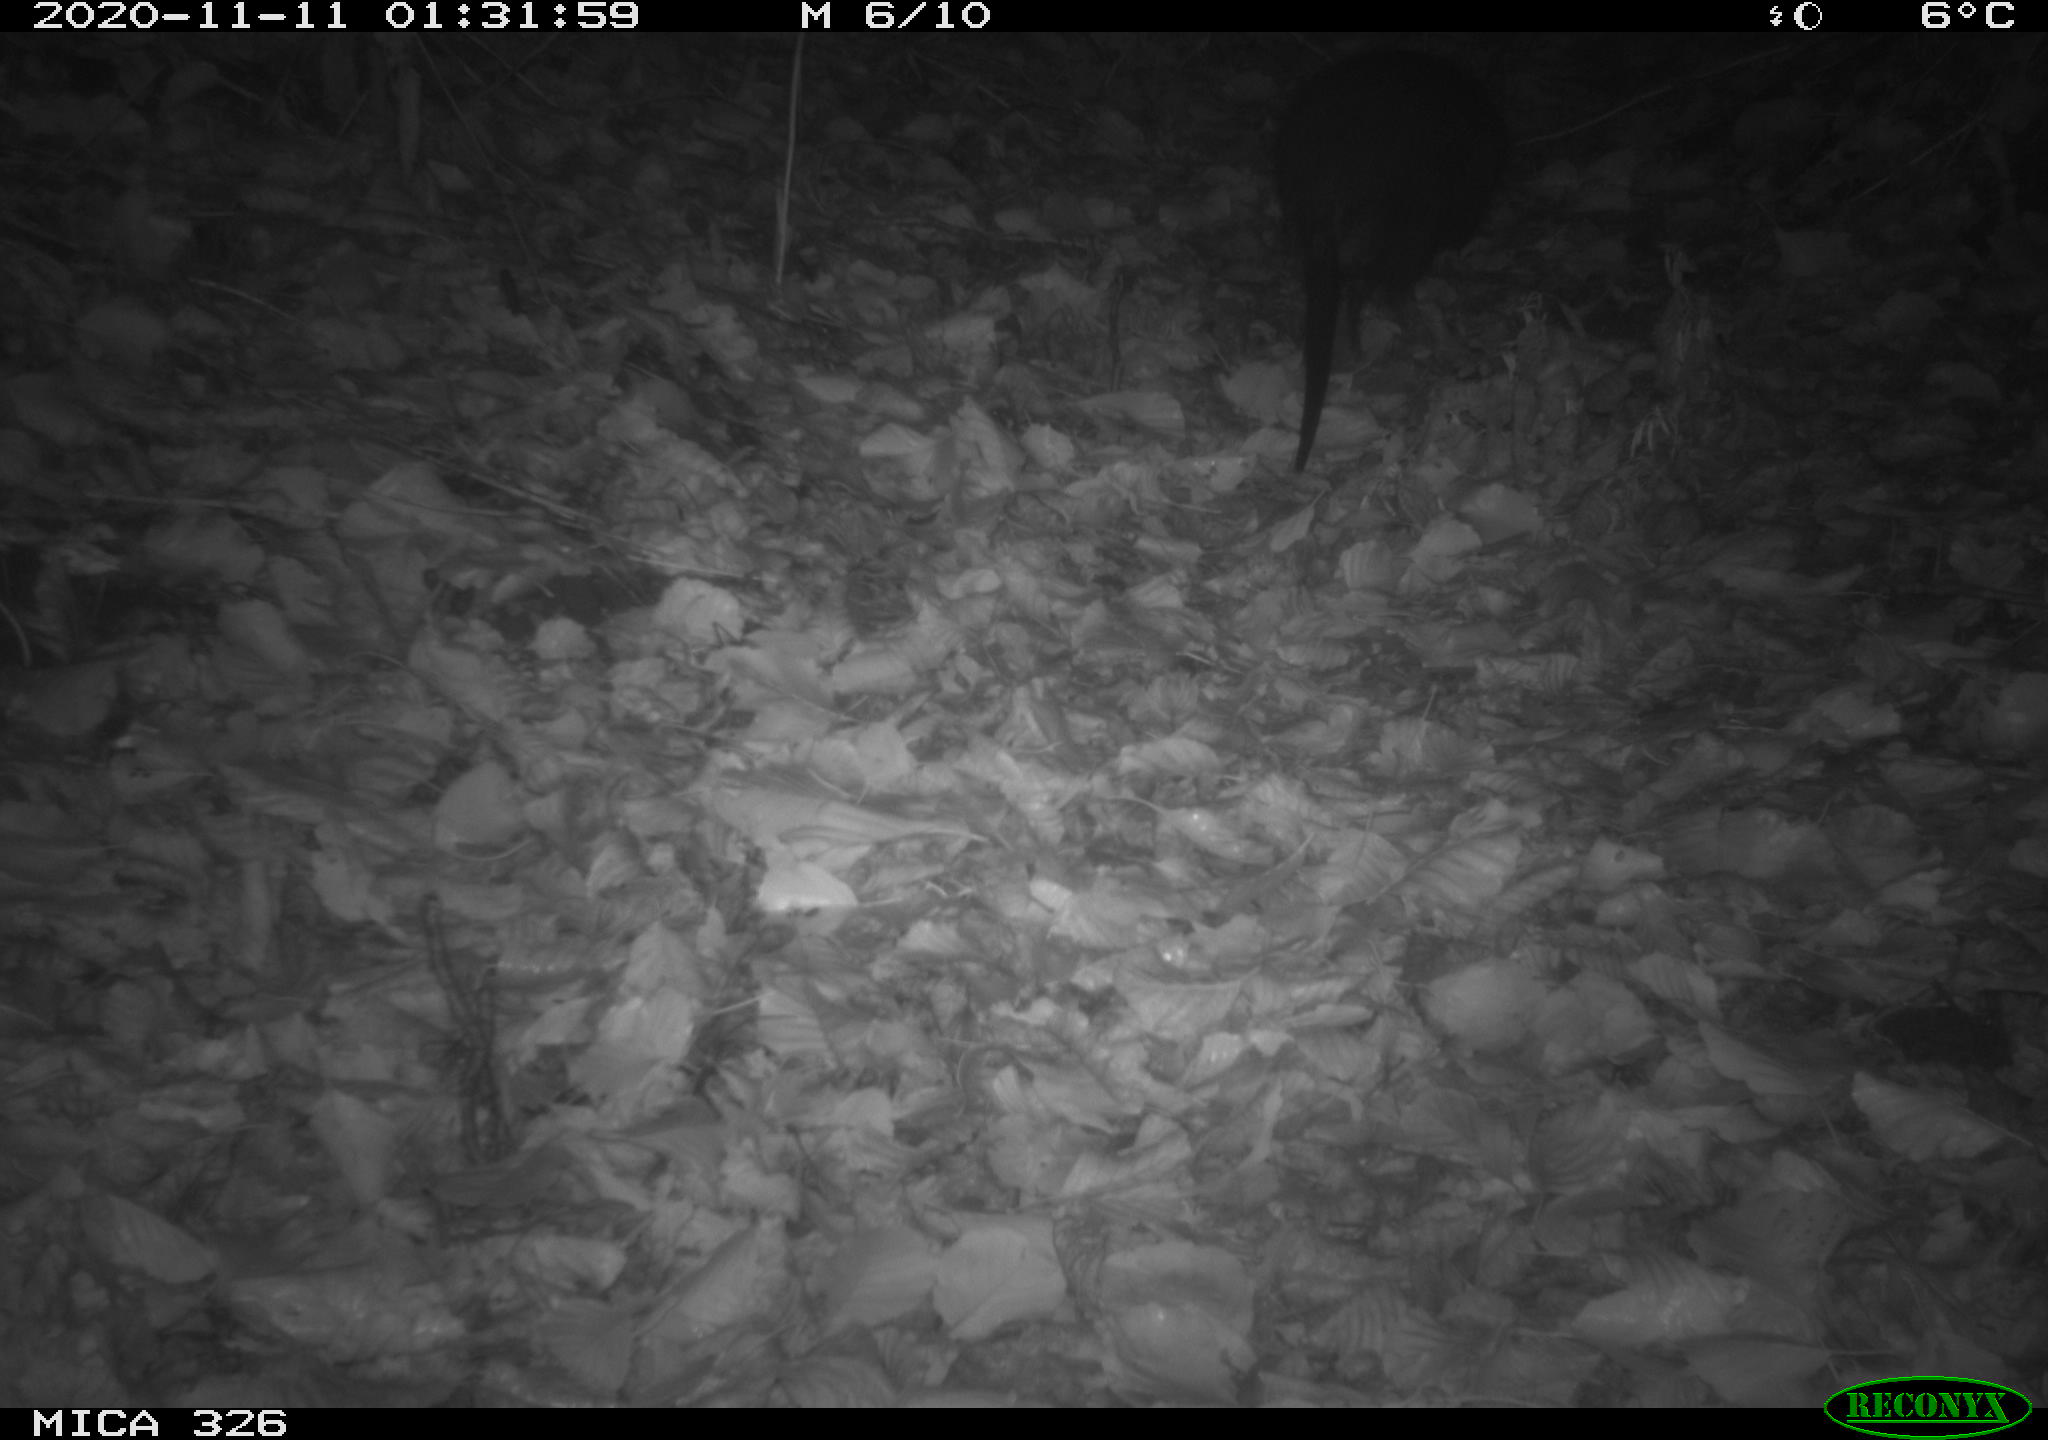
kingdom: Animalia
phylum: Chordata
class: Mammalia
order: Rodentia
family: Myocastoridae
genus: Myocastor
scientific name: Myocastor coypus
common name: Coypu
